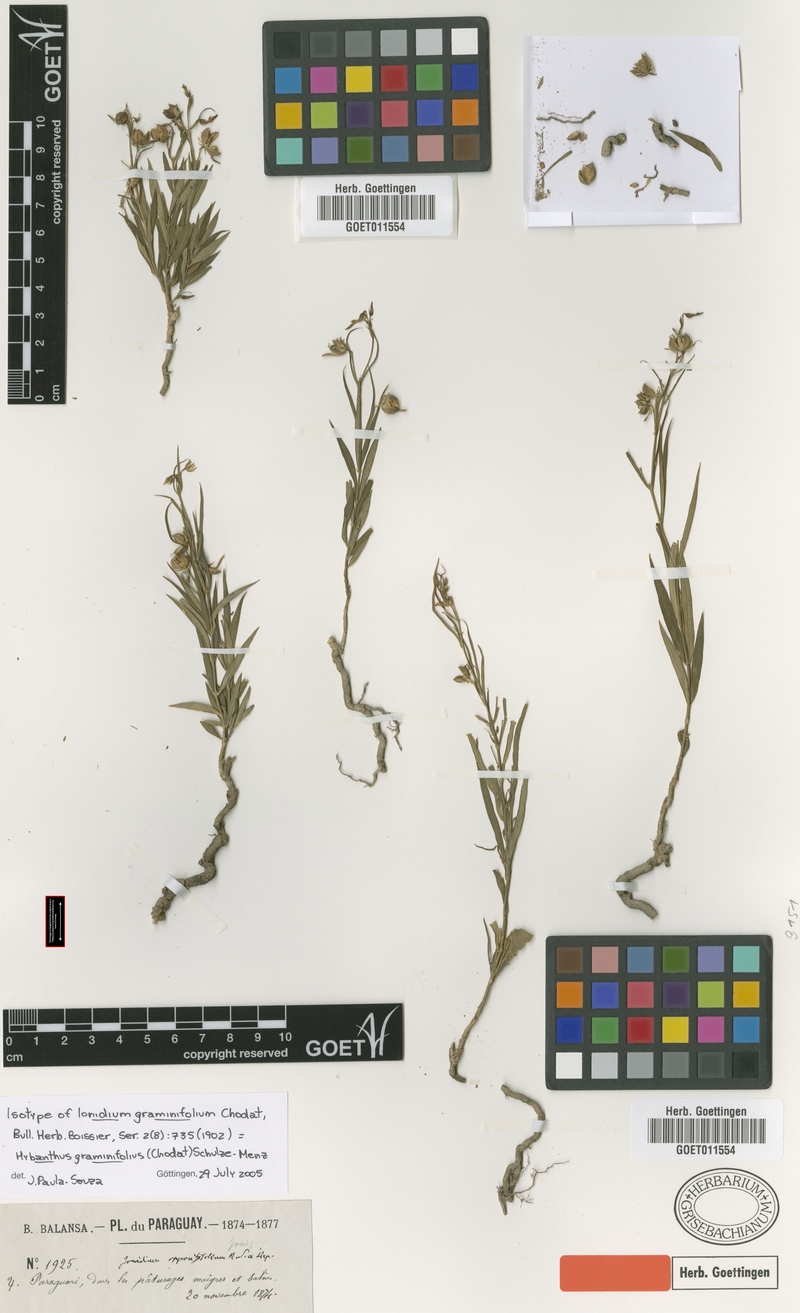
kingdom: Plantae
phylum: Tracheophyta
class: Magnoliopsida
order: Malpighiales
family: Violaceae
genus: Pombalia
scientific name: Pombalia graminifolia
